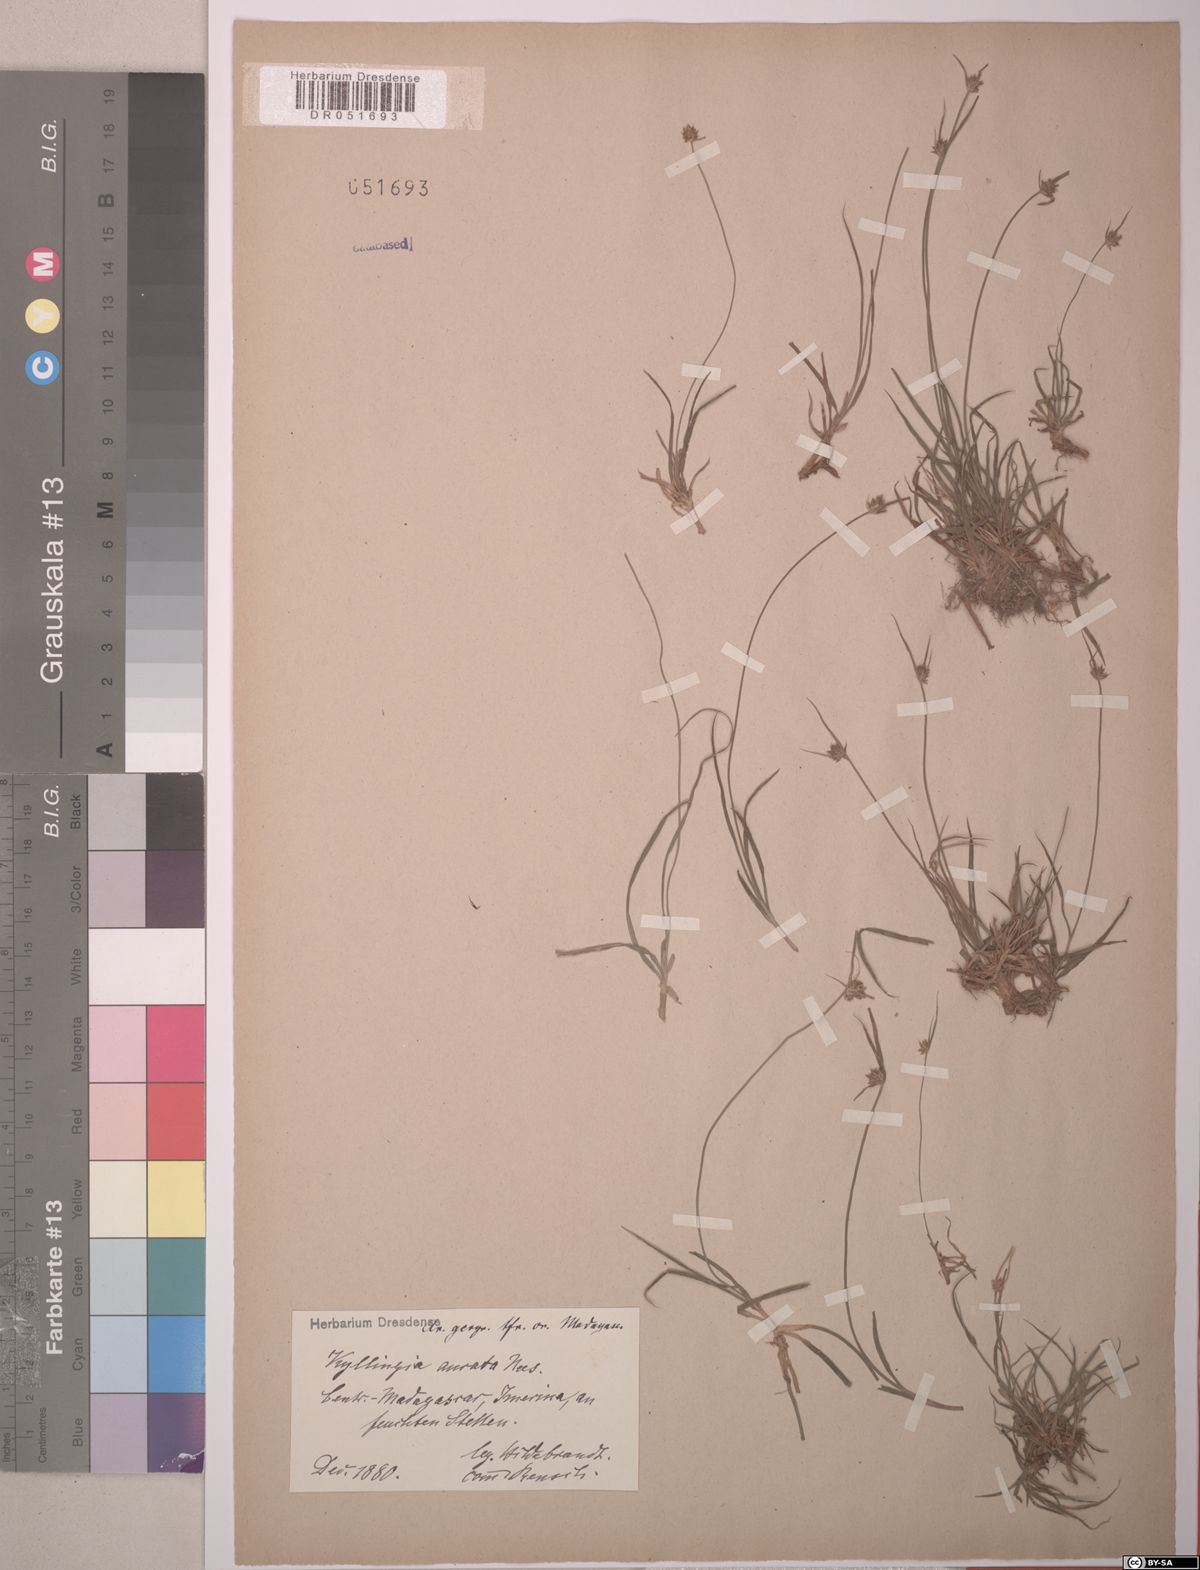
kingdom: Plantae
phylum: Tracheophyta
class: Liliopsida
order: Poales
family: Cyperaceae
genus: Cyperus
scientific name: Cyperus auratus
